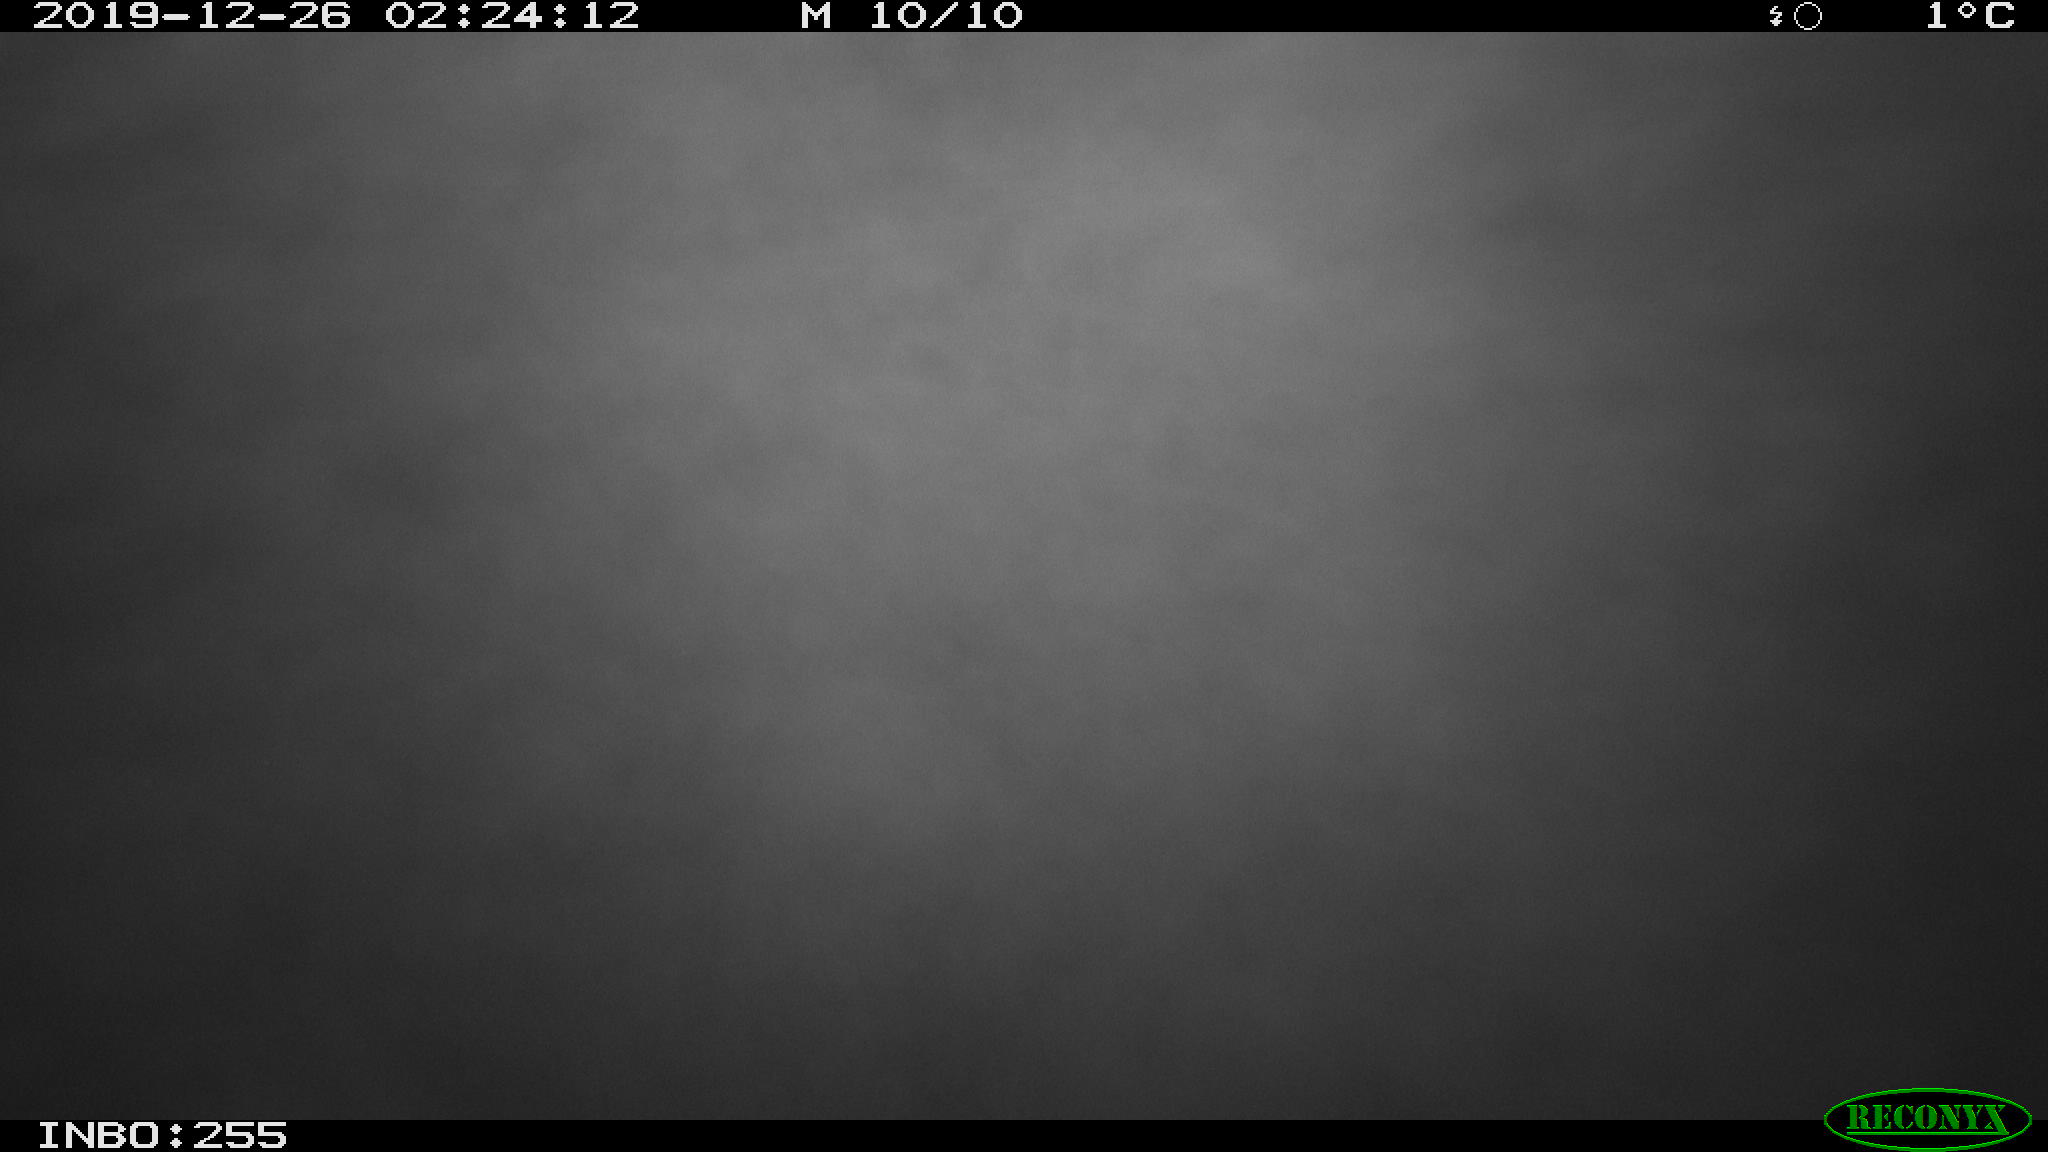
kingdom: Animalia
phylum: Chordata
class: Mammalia
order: Rodentia
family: Cricetidae
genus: Ondatra
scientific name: Ondatra zibethicus
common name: Muskrat
